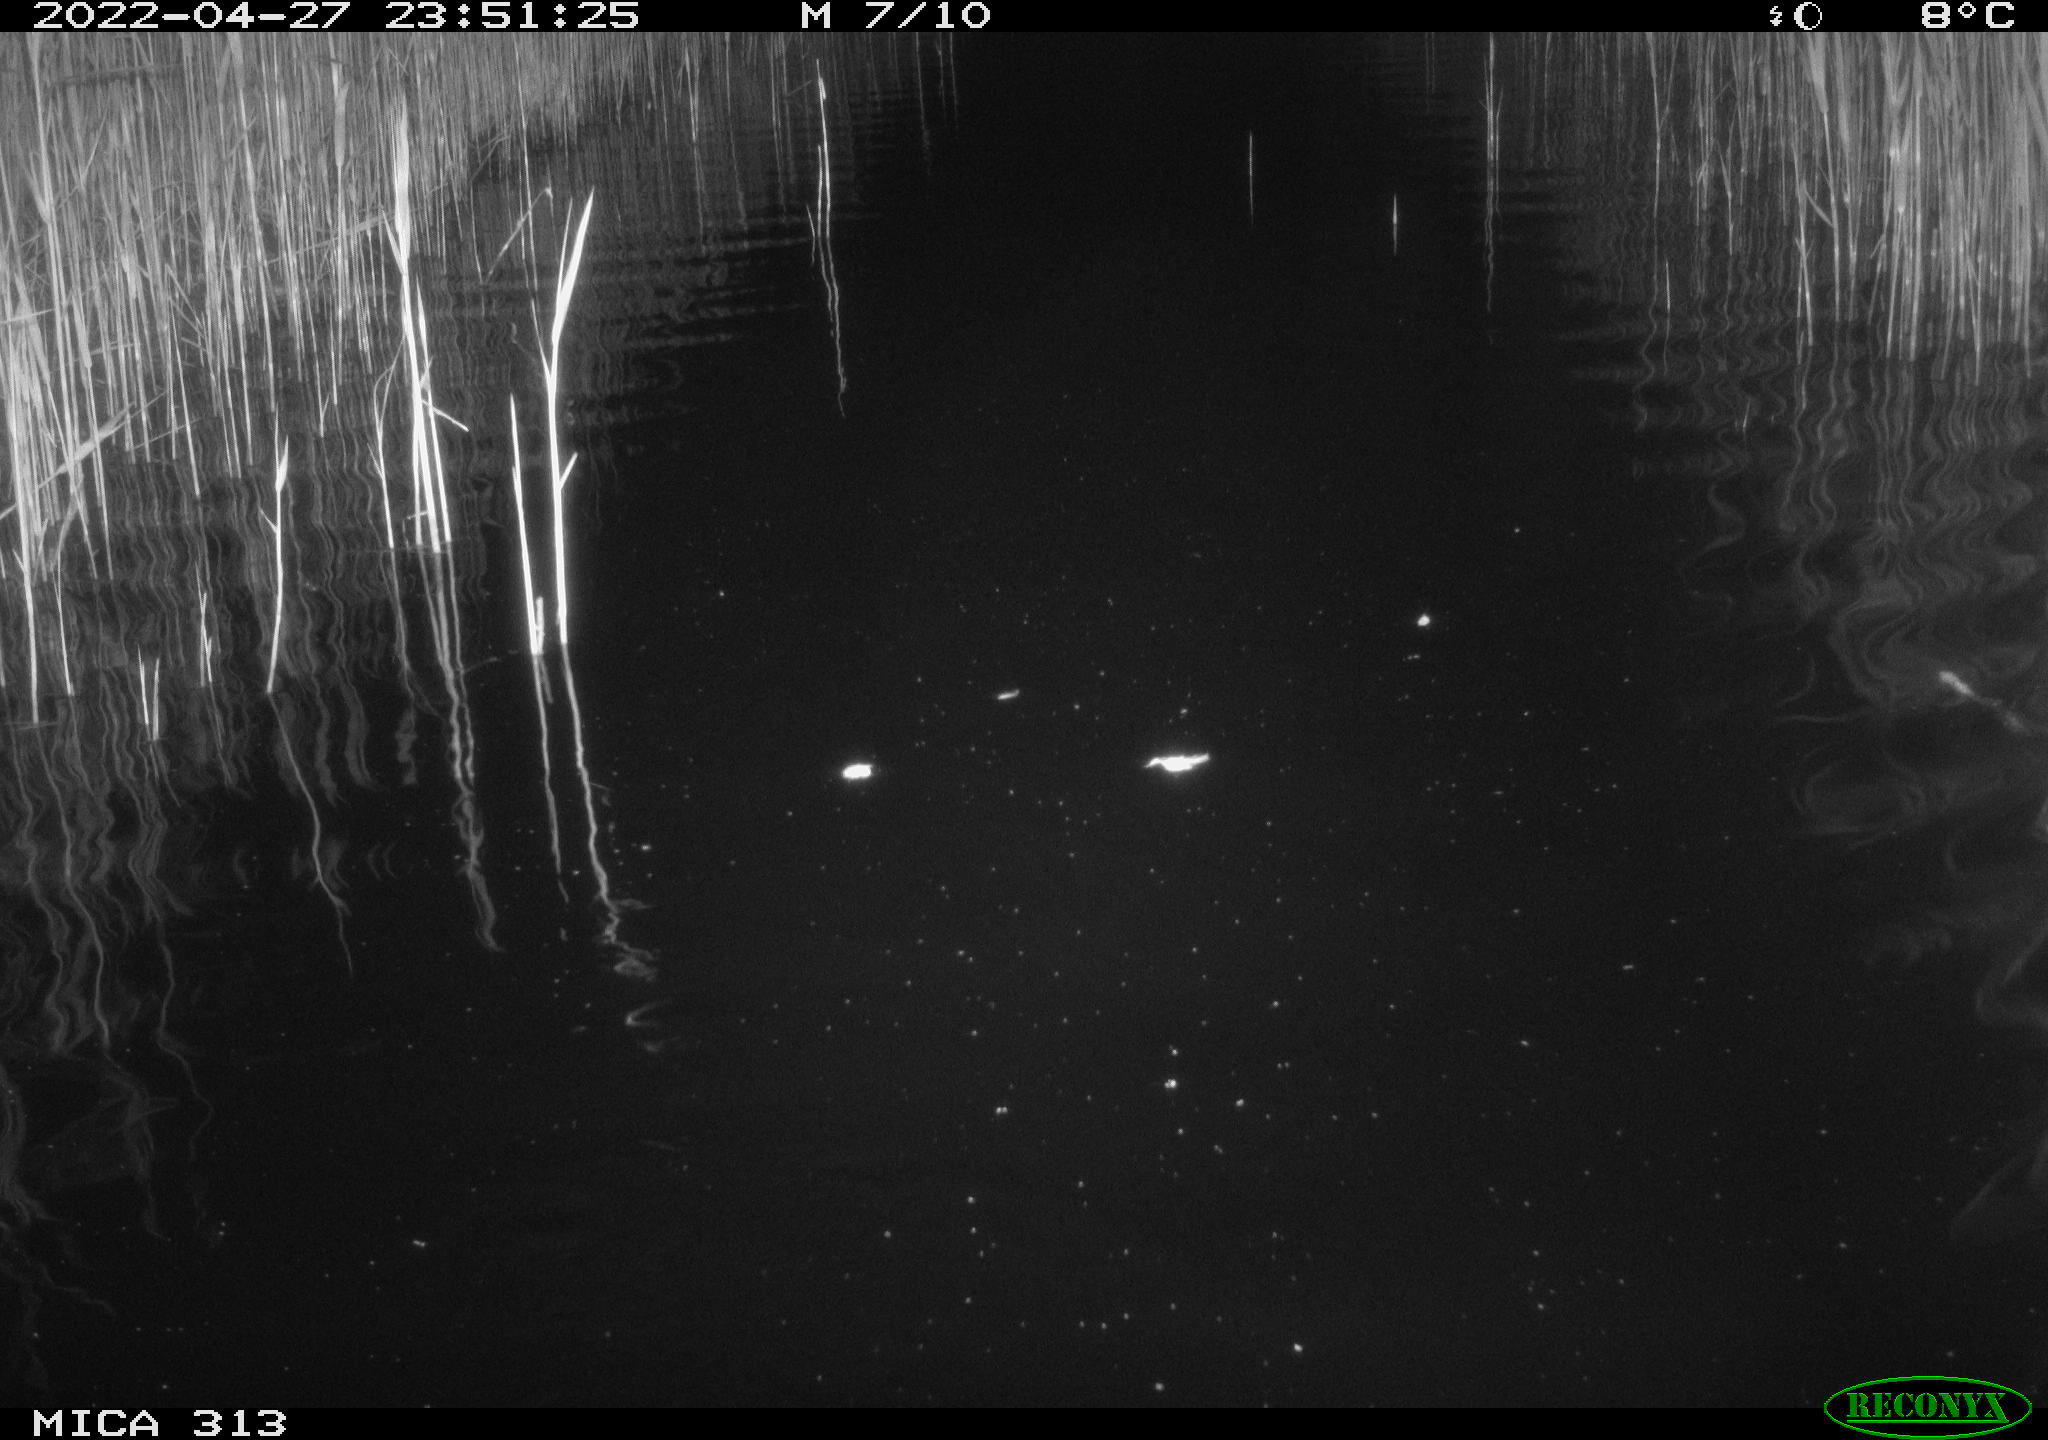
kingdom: Animalia
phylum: Chordata
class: Mammalia
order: Rodentia
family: Cricetidae
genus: Ondatra
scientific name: Ondatra zibethicus
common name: Muskrat
